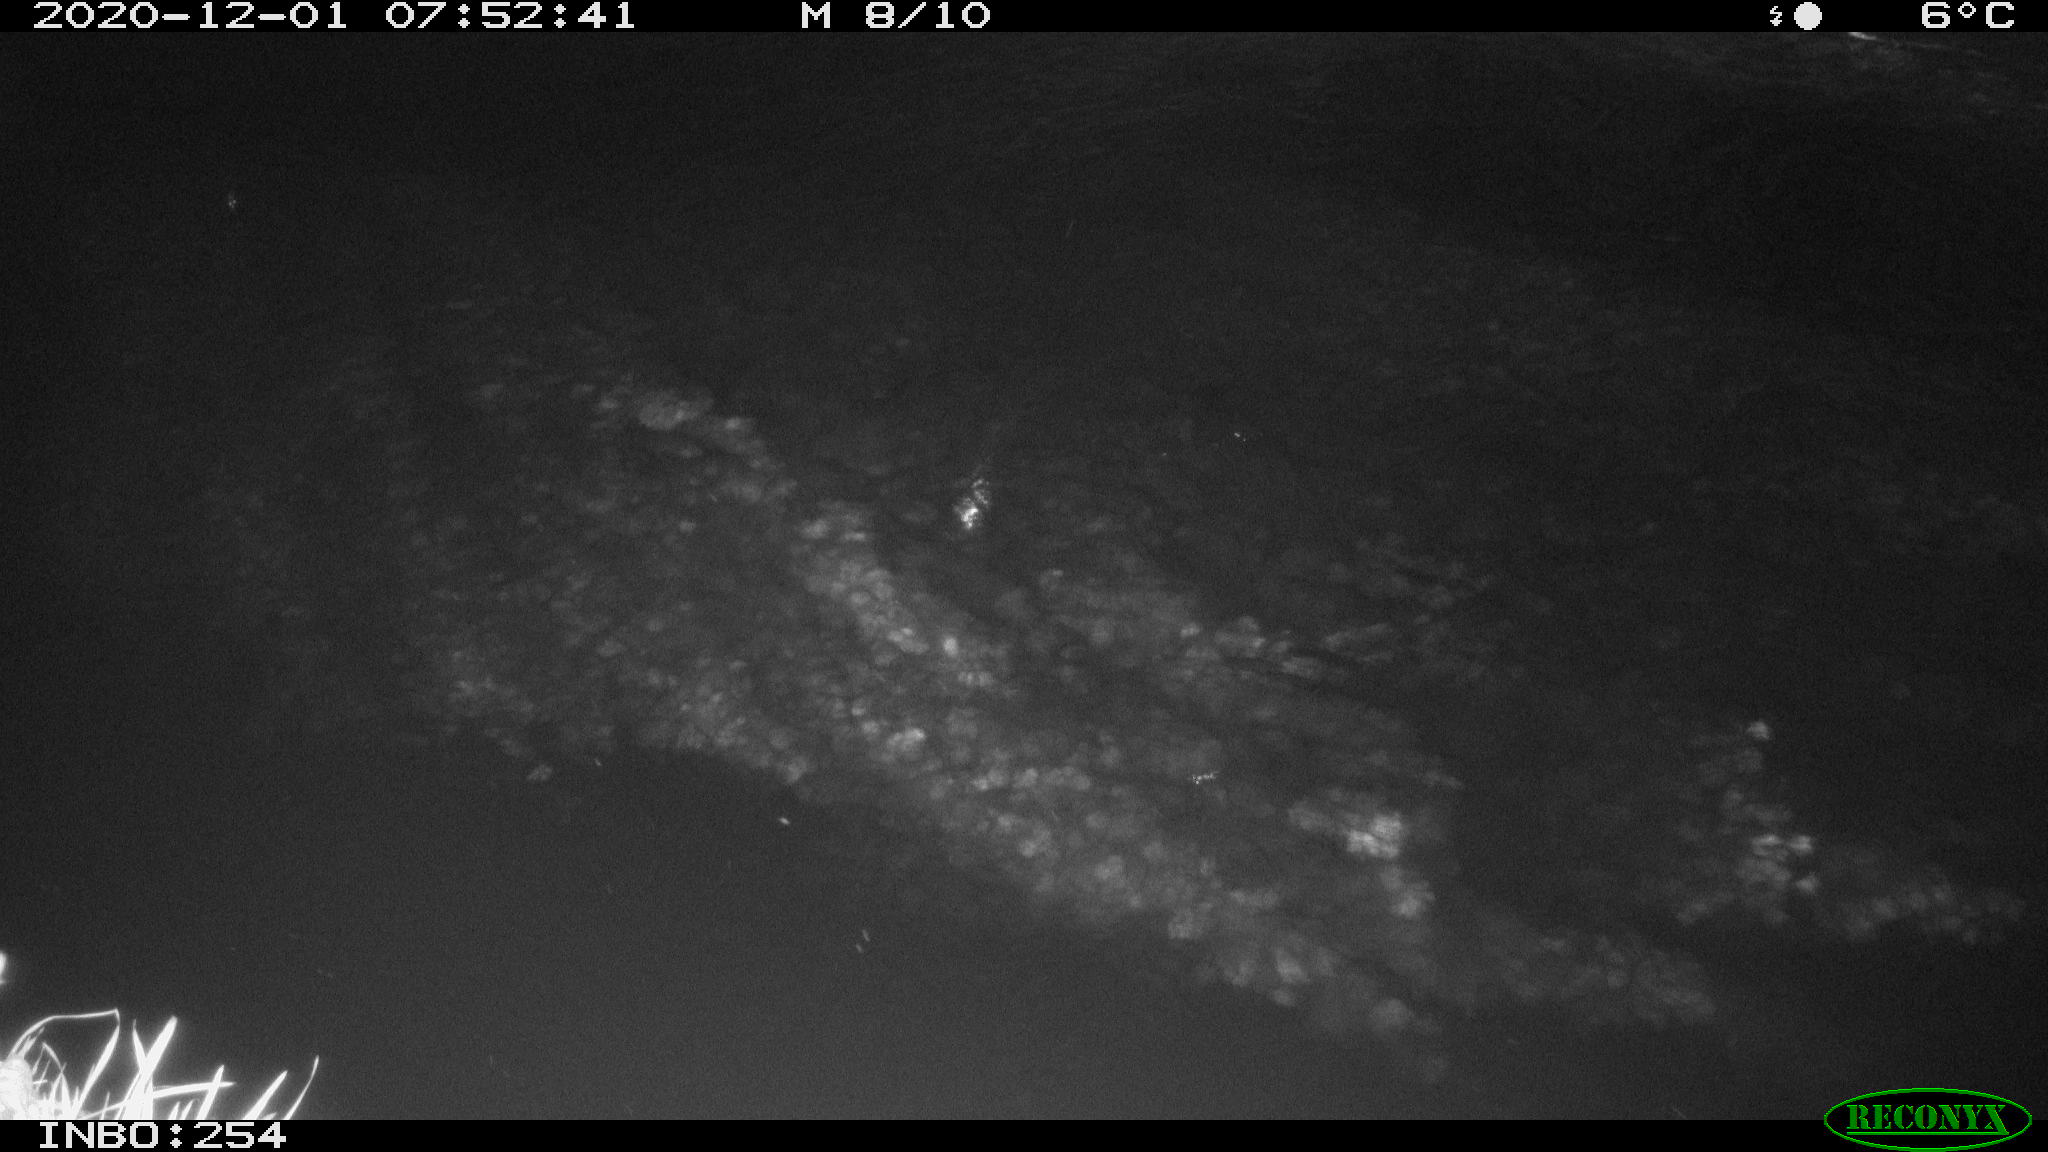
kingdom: Animalia
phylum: Chordata
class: Aves
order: Anseriformes
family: Anatidae
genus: Anas
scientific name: Anas platyrhynchos
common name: Mallard
